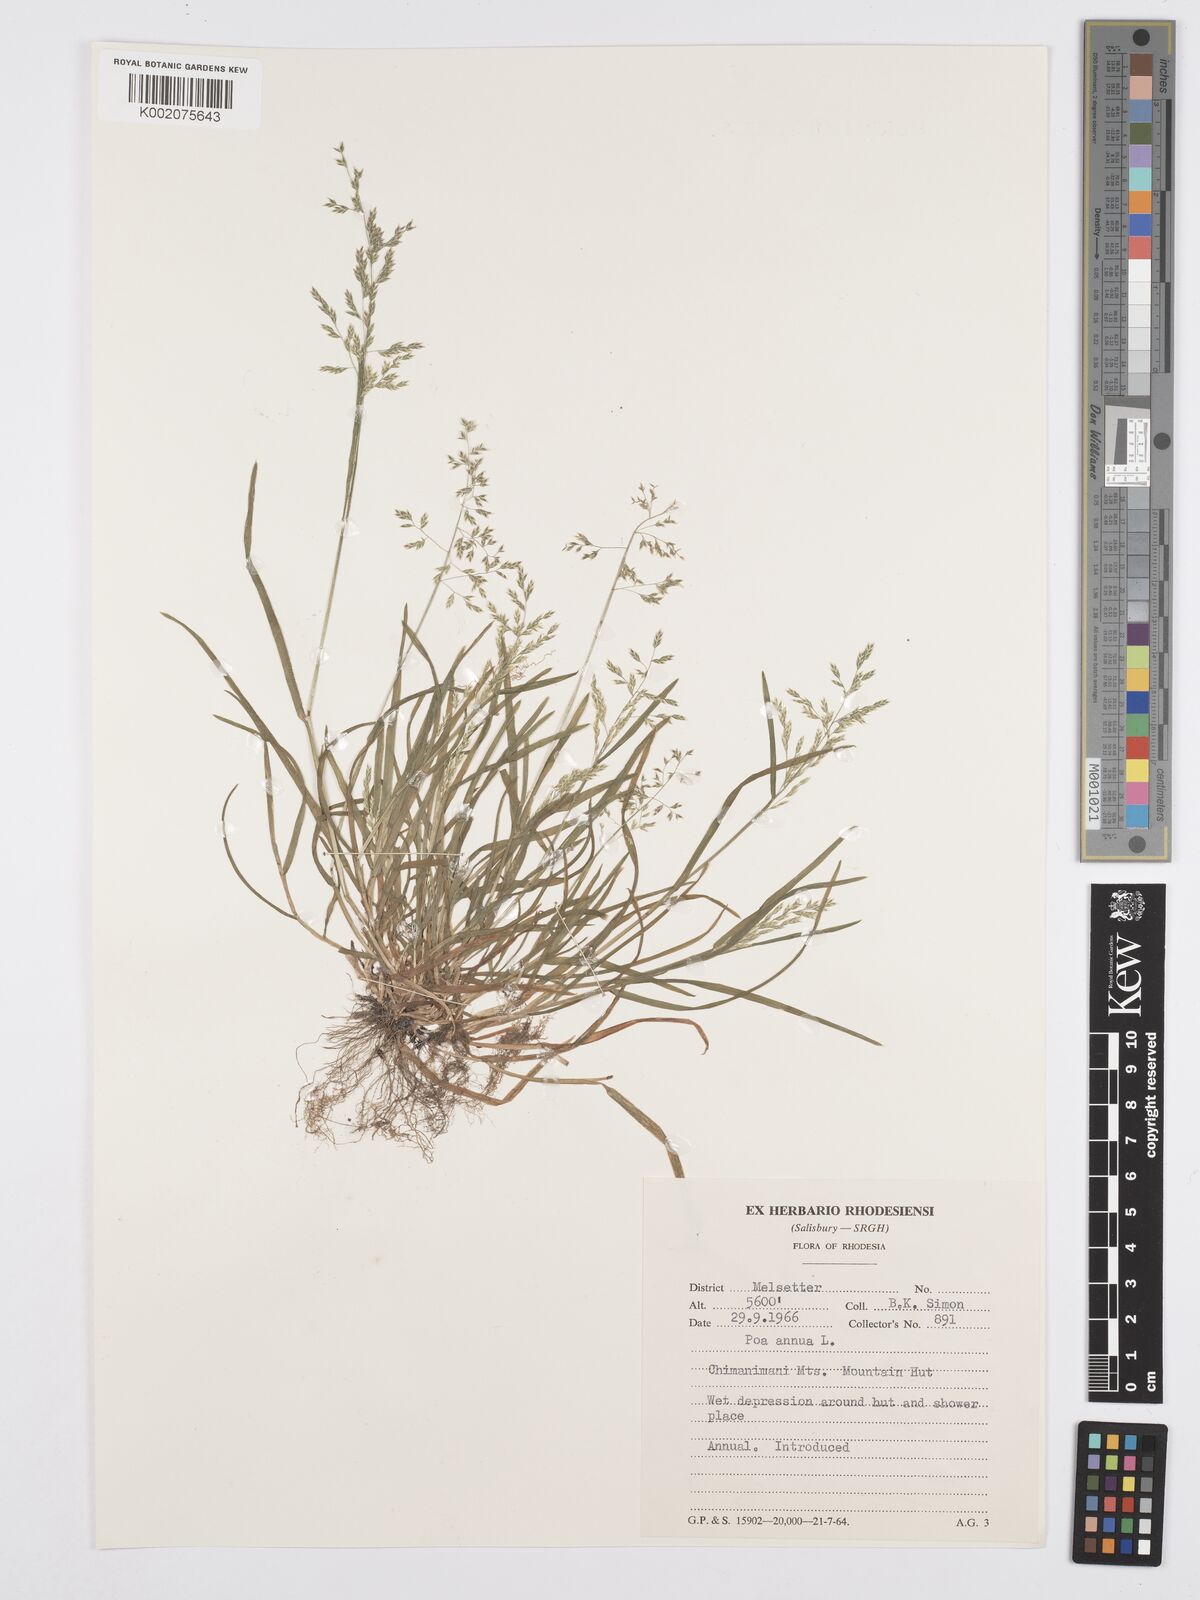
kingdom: Plantae
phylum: Tracheophyta
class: Liliopsida
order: Poales
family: Poaceae
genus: Poa
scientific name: Poa annua
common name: Annual bluegrass
